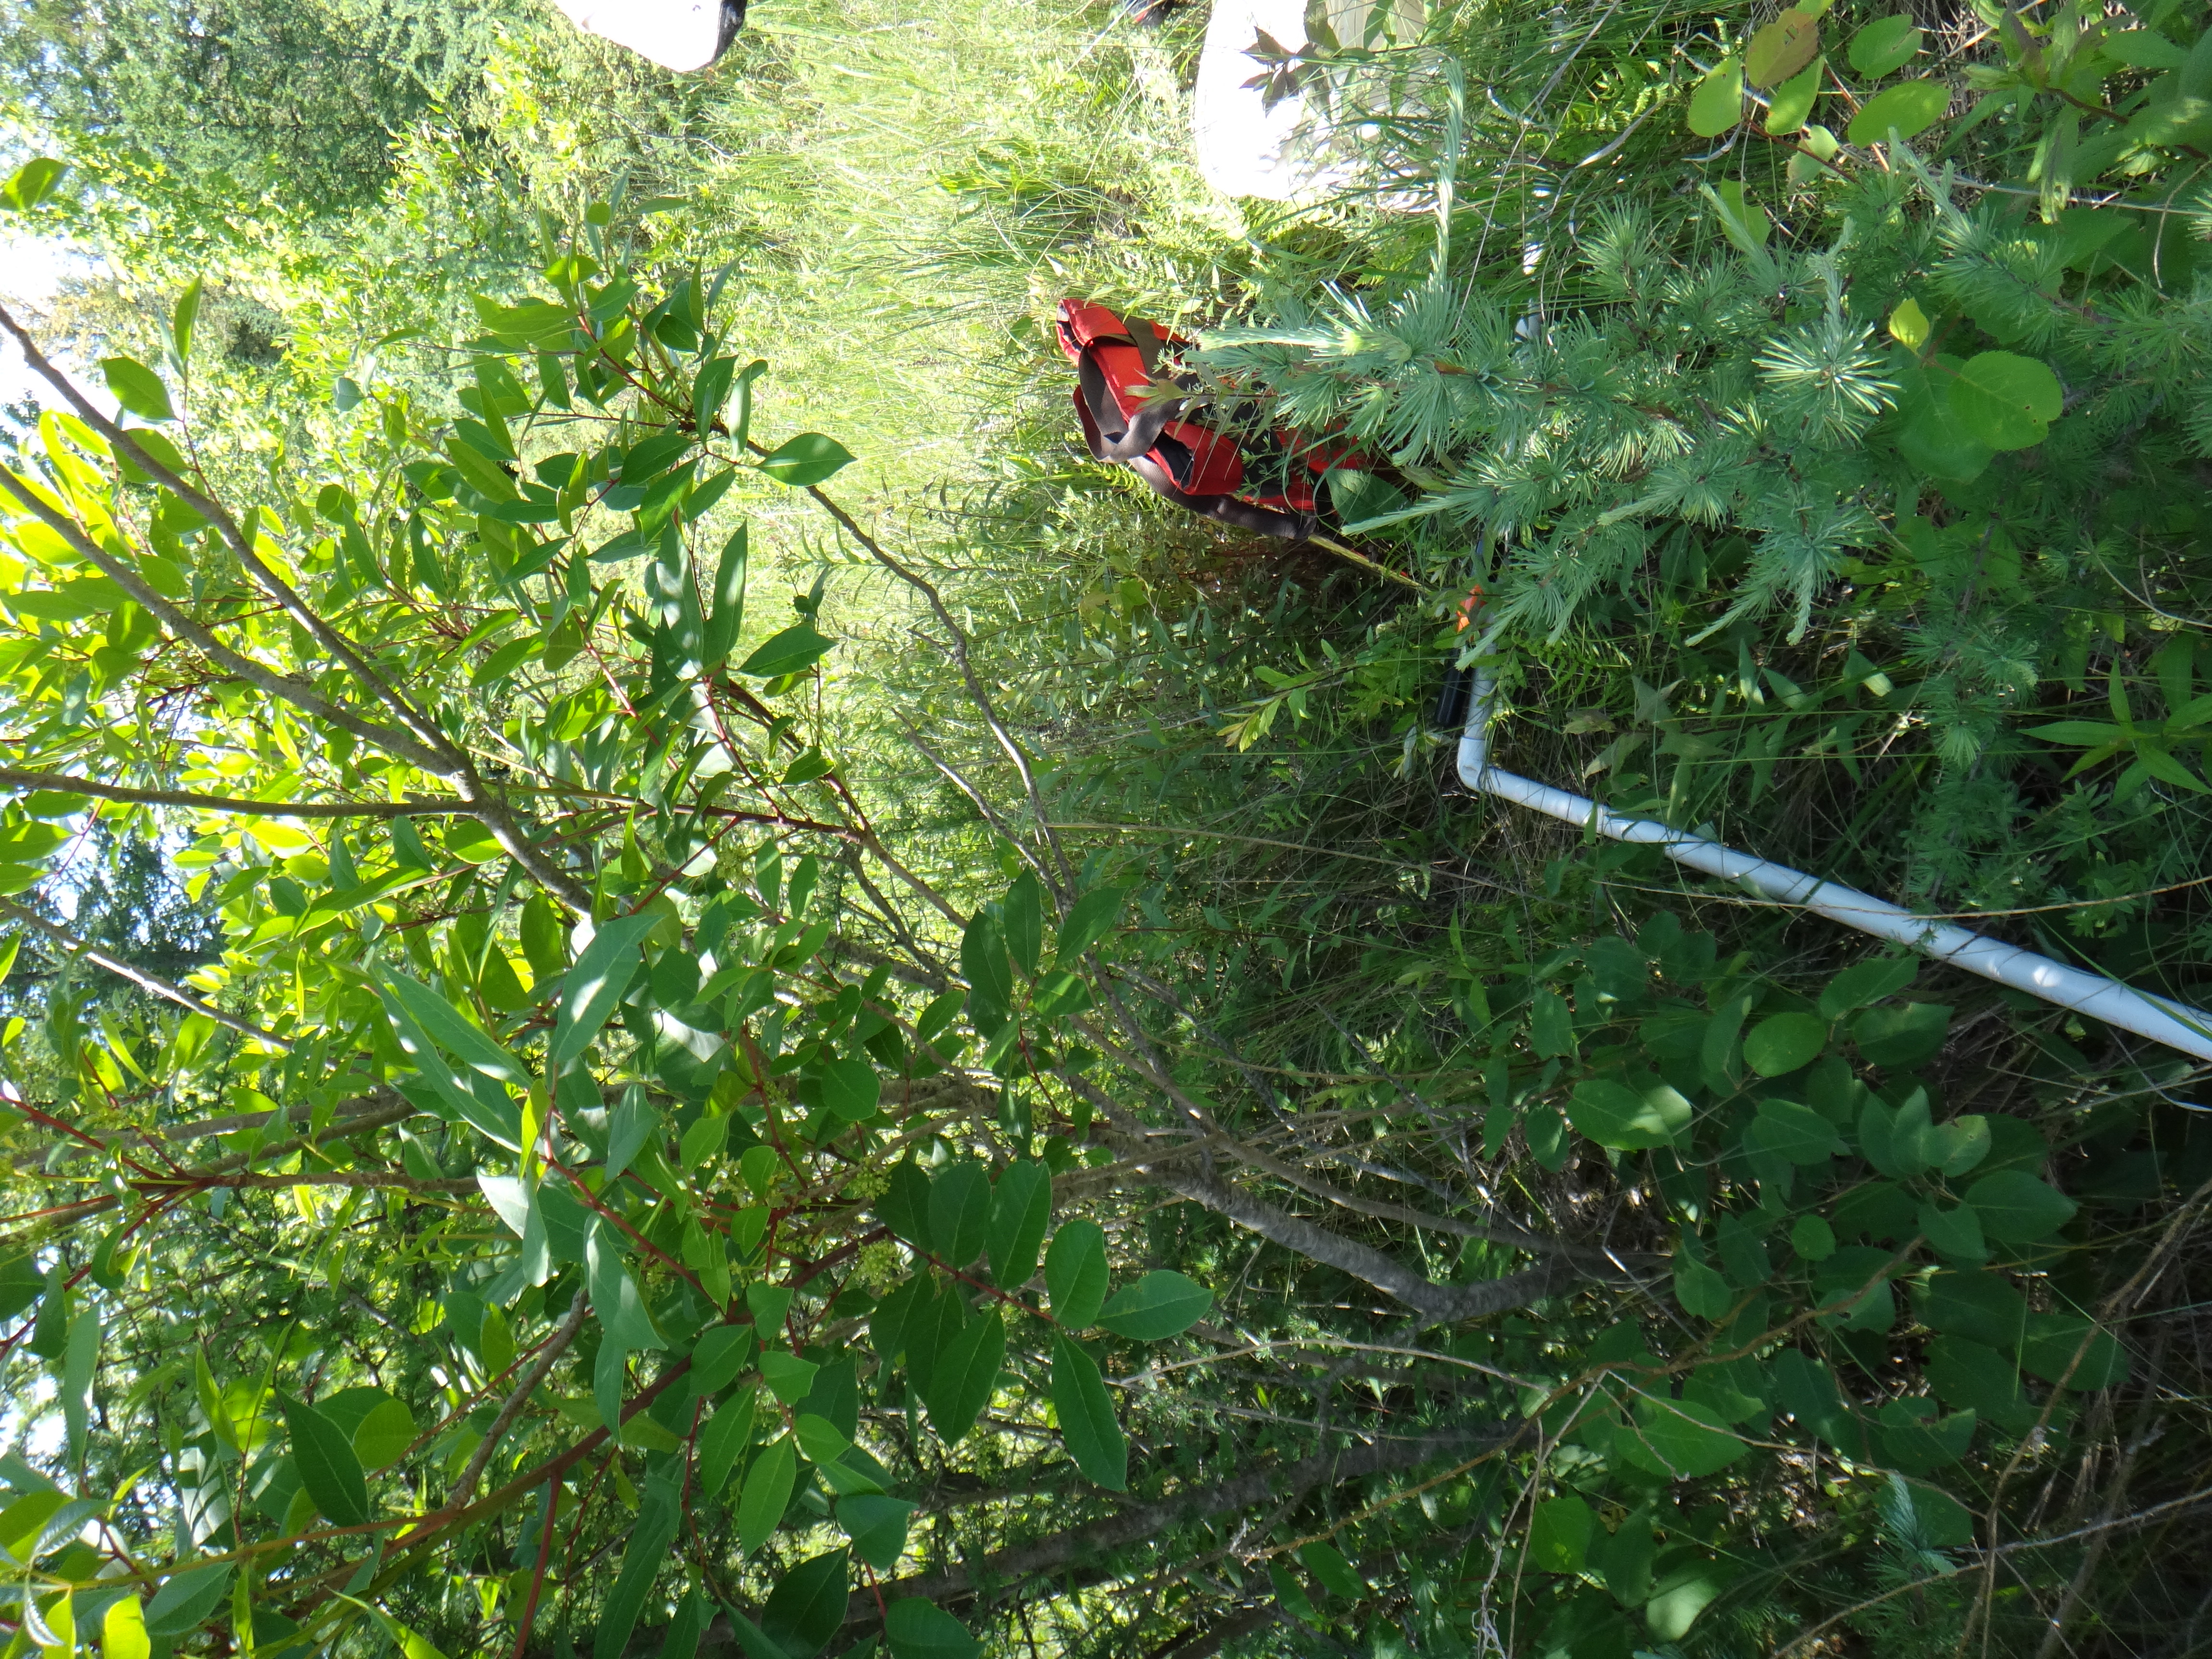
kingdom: Plantae
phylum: Tracheophyta
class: Magnoliopsida
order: Asterales
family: Asteraceae
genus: Doellingeria
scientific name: Doellingeria umbellata
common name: Flat-top white aster
